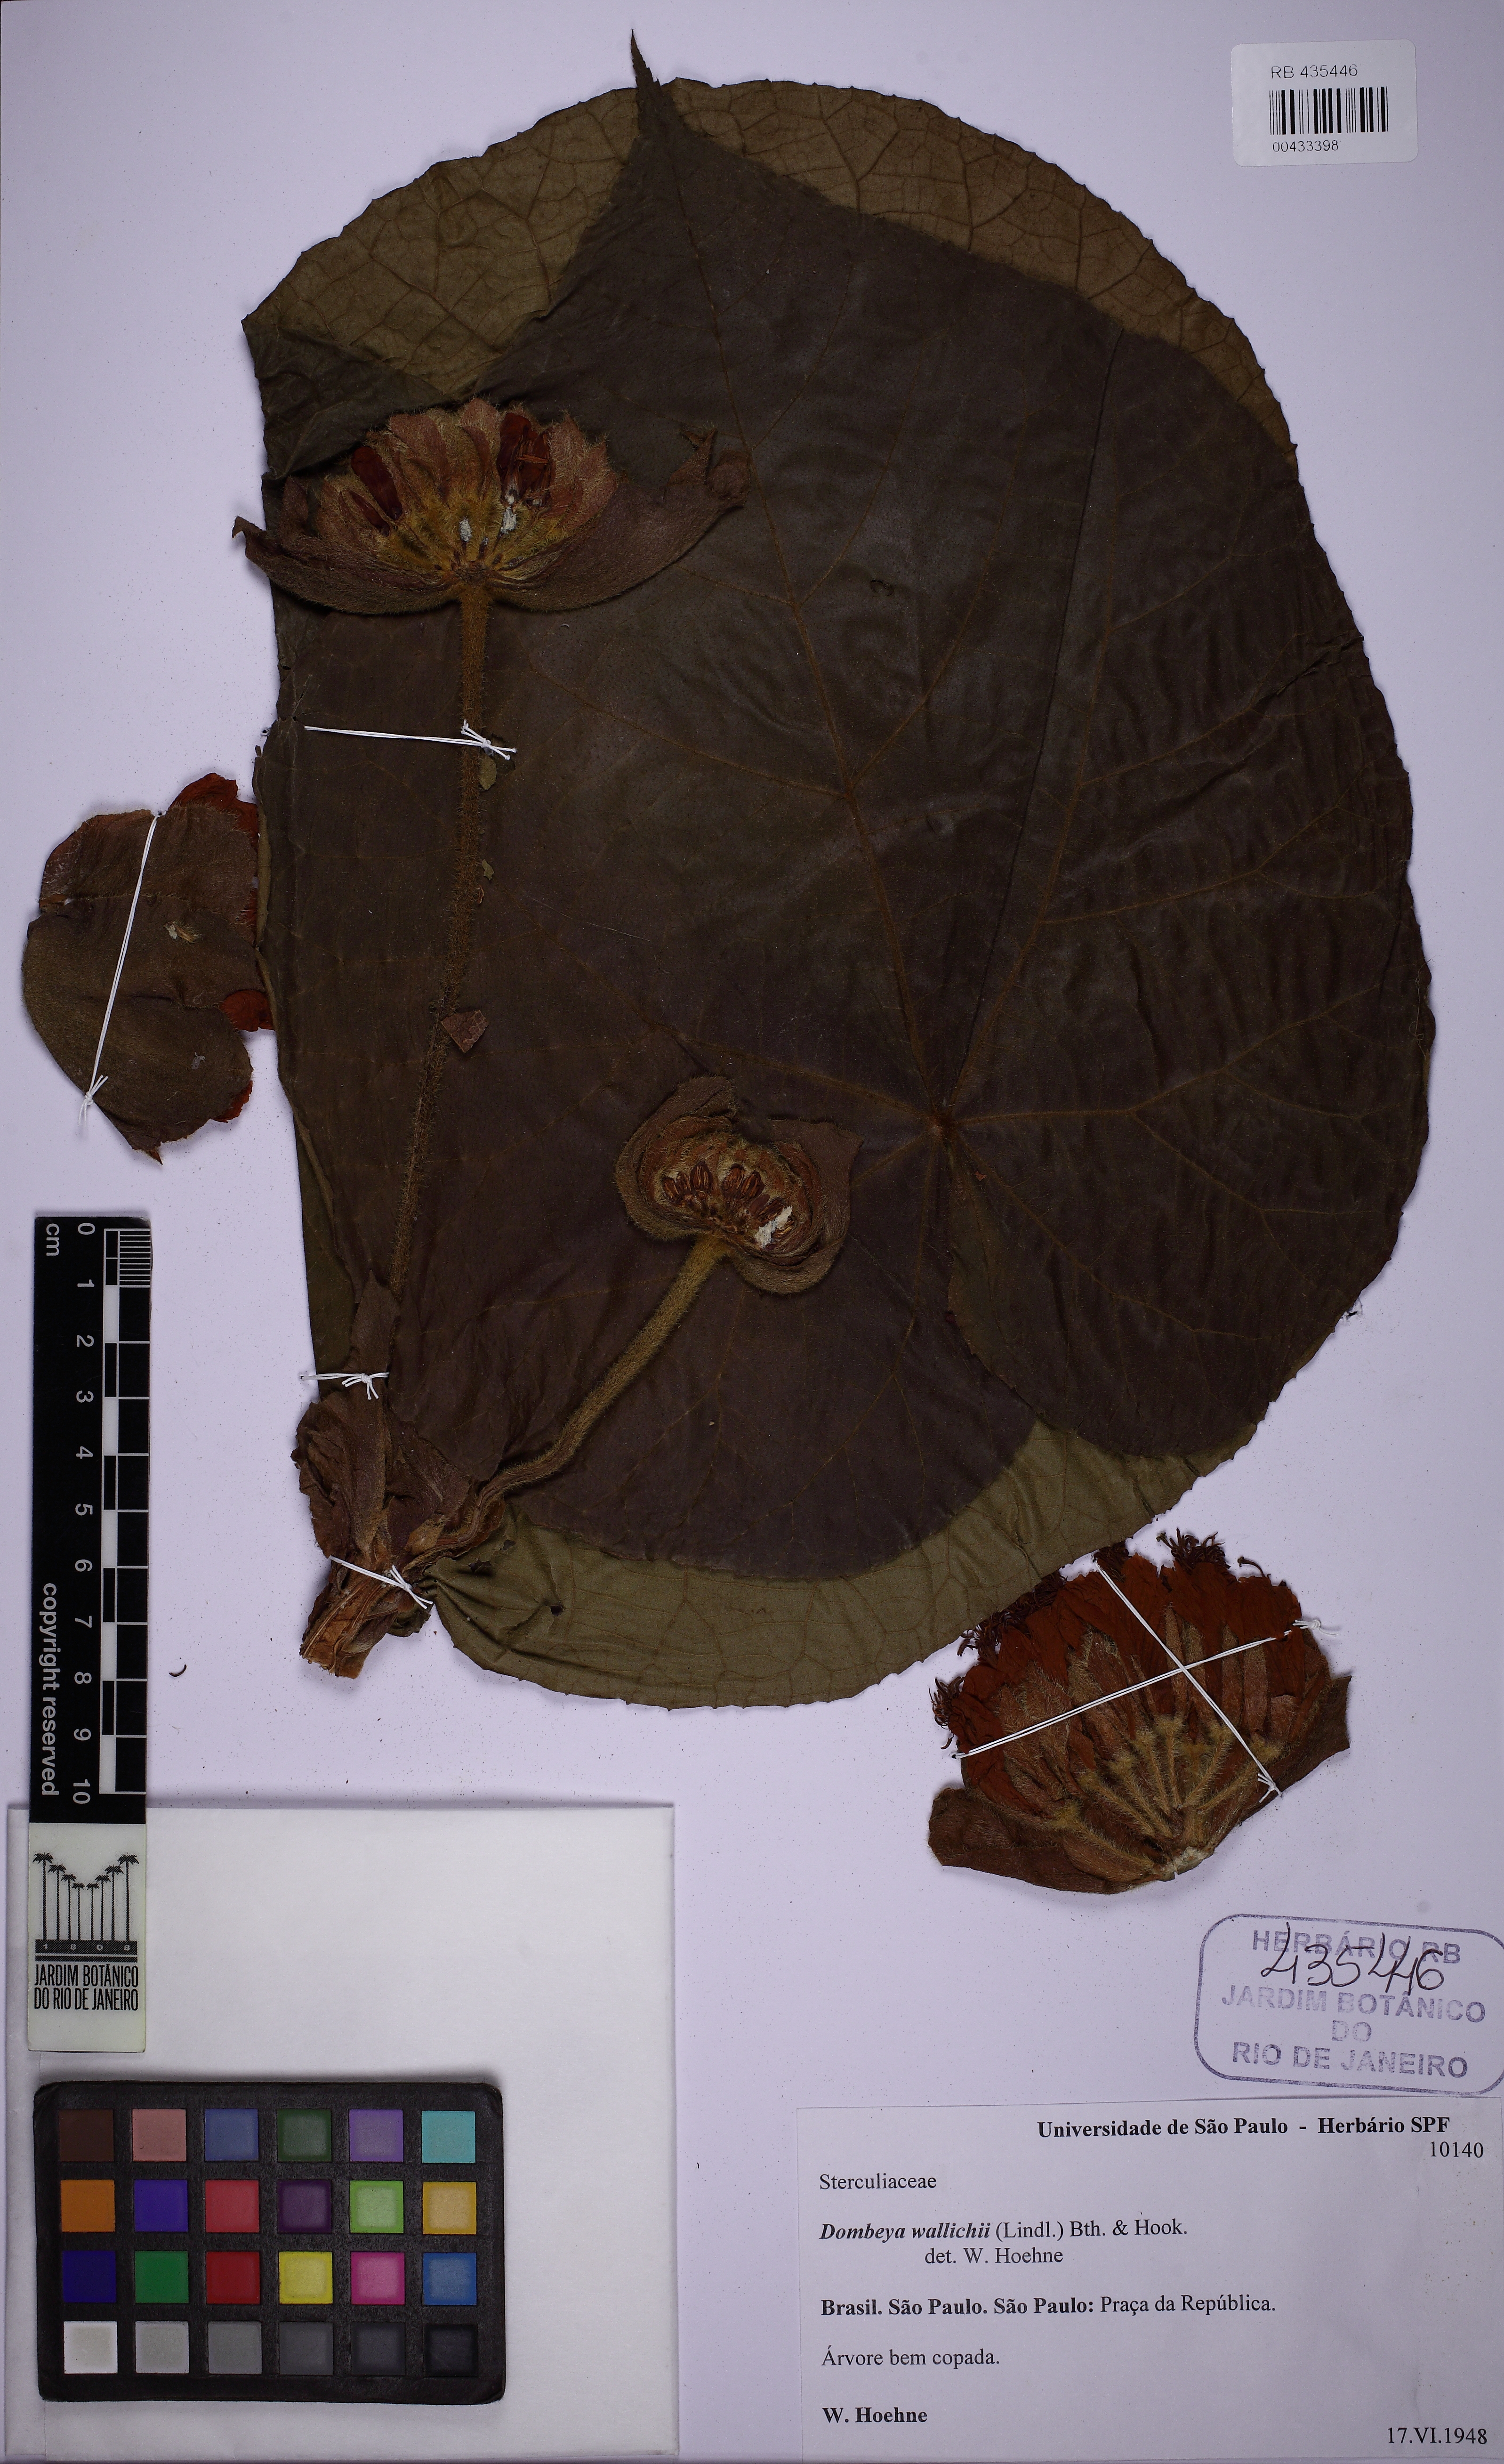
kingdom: Plantae
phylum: Tracheophyta
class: Magnoliopsida
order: Malvales
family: Malvaceae
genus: Dombeya
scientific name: Dombeya wallichii
